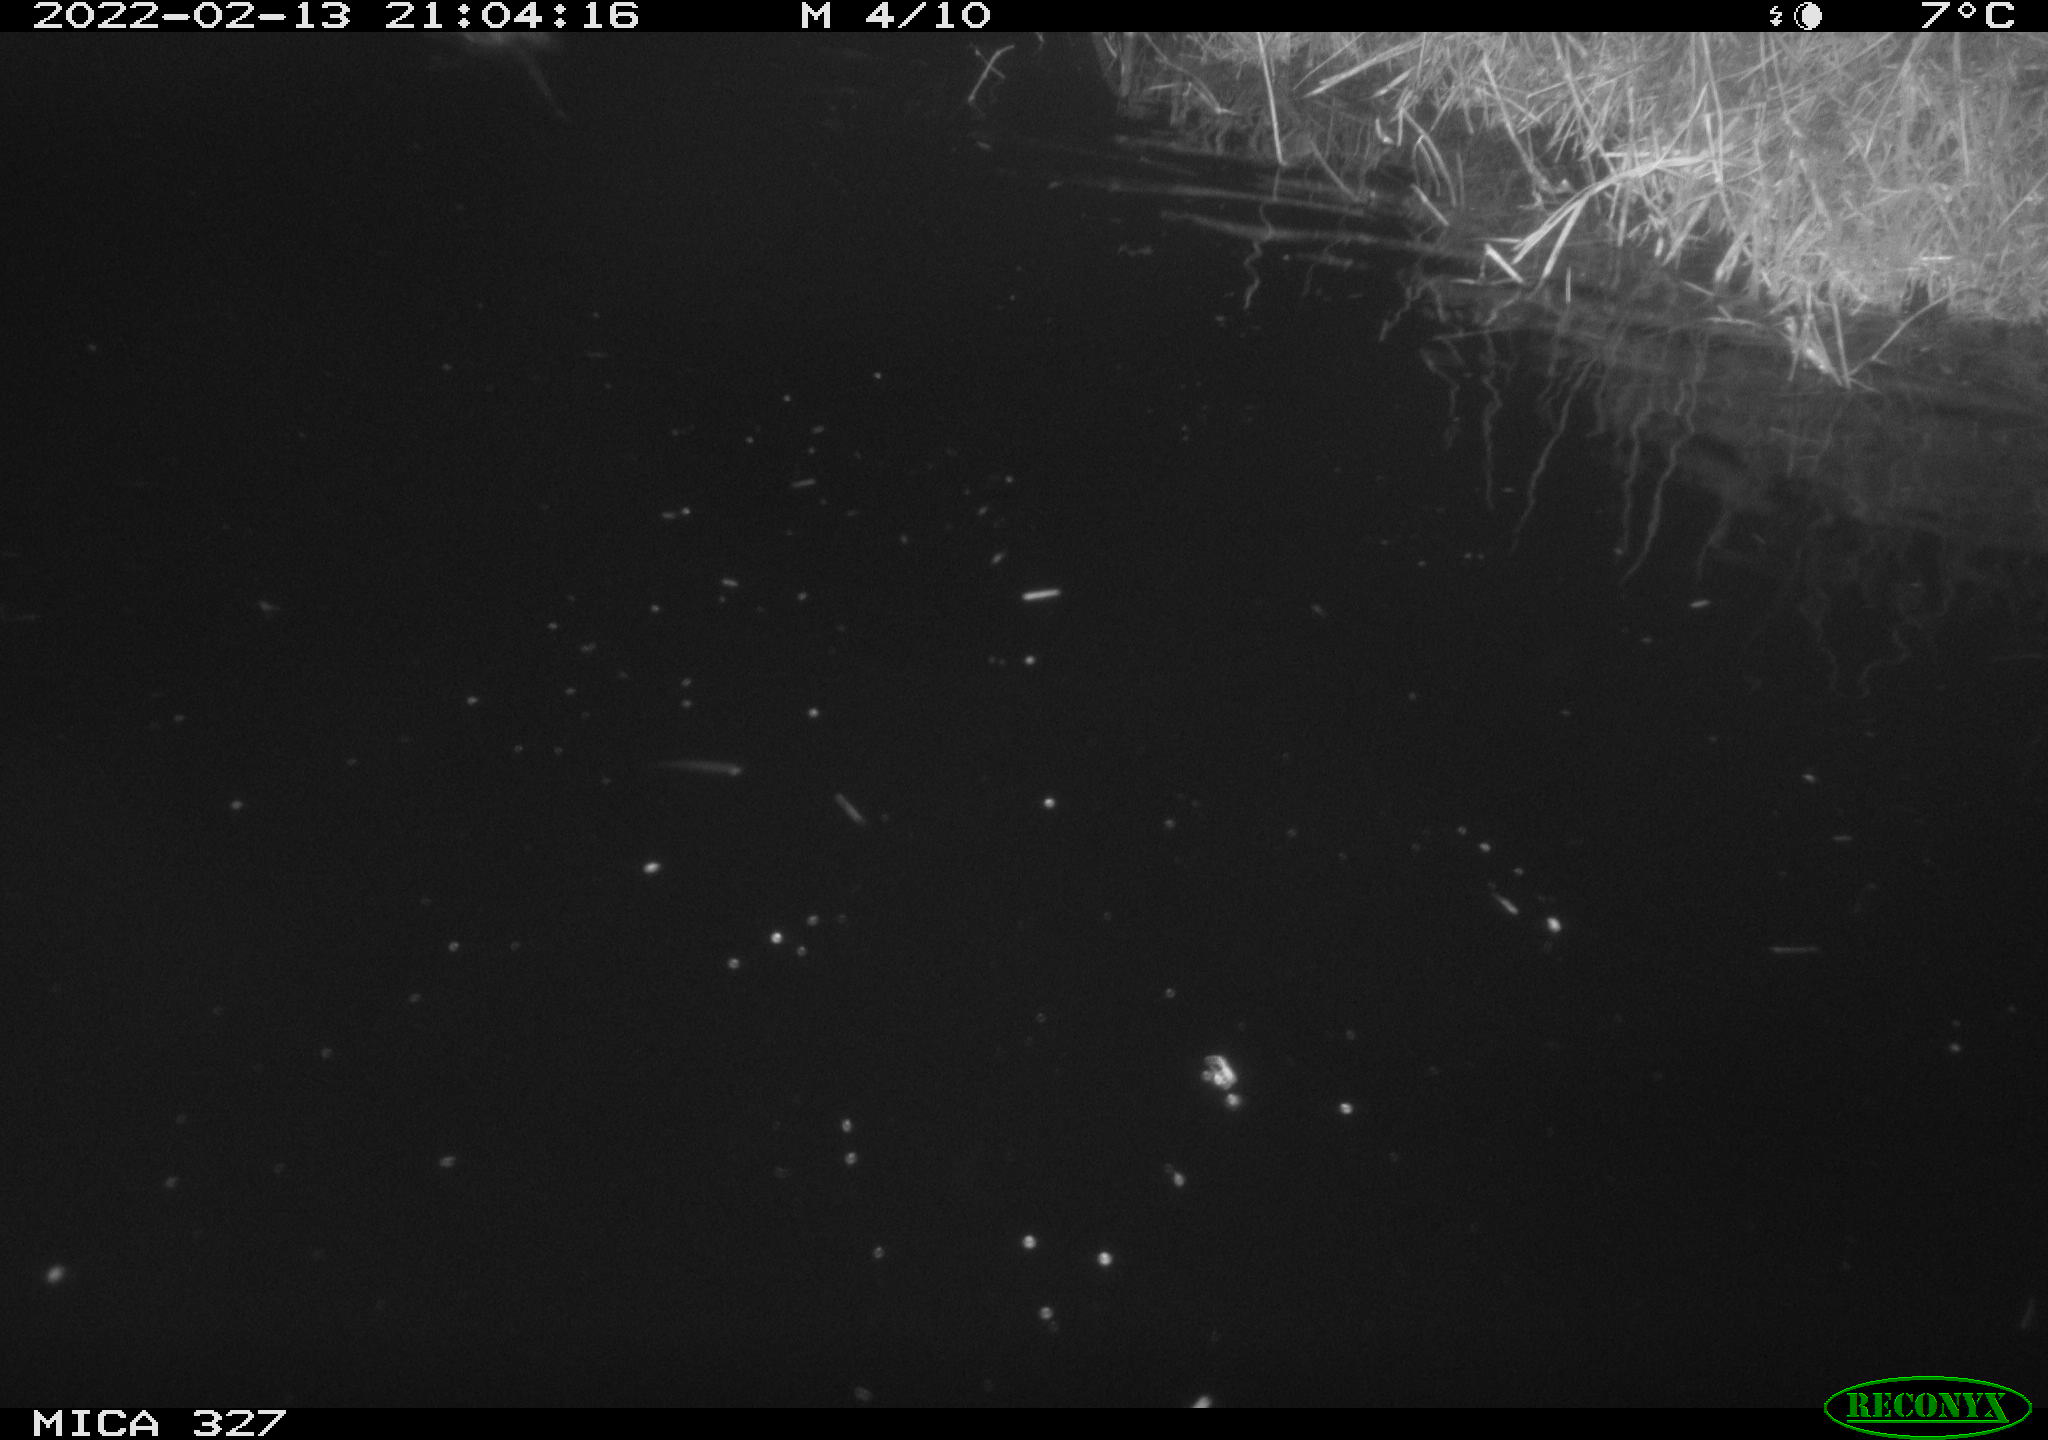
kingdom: Animalia
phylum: Chordata
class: Mammalia
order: Rodentia
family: Cricetidae
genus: Ondatra
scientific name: Ondatra zibethicus
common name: Muskrat
